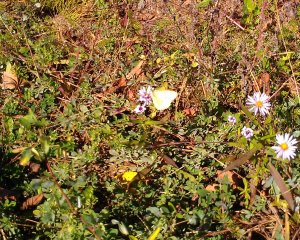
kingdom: Animalia
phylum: Arthropoda
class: Insecta
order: Lepidoptera
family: Pieridae
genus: Colias
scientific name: Colias philodice
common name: Clouded Sulphur
